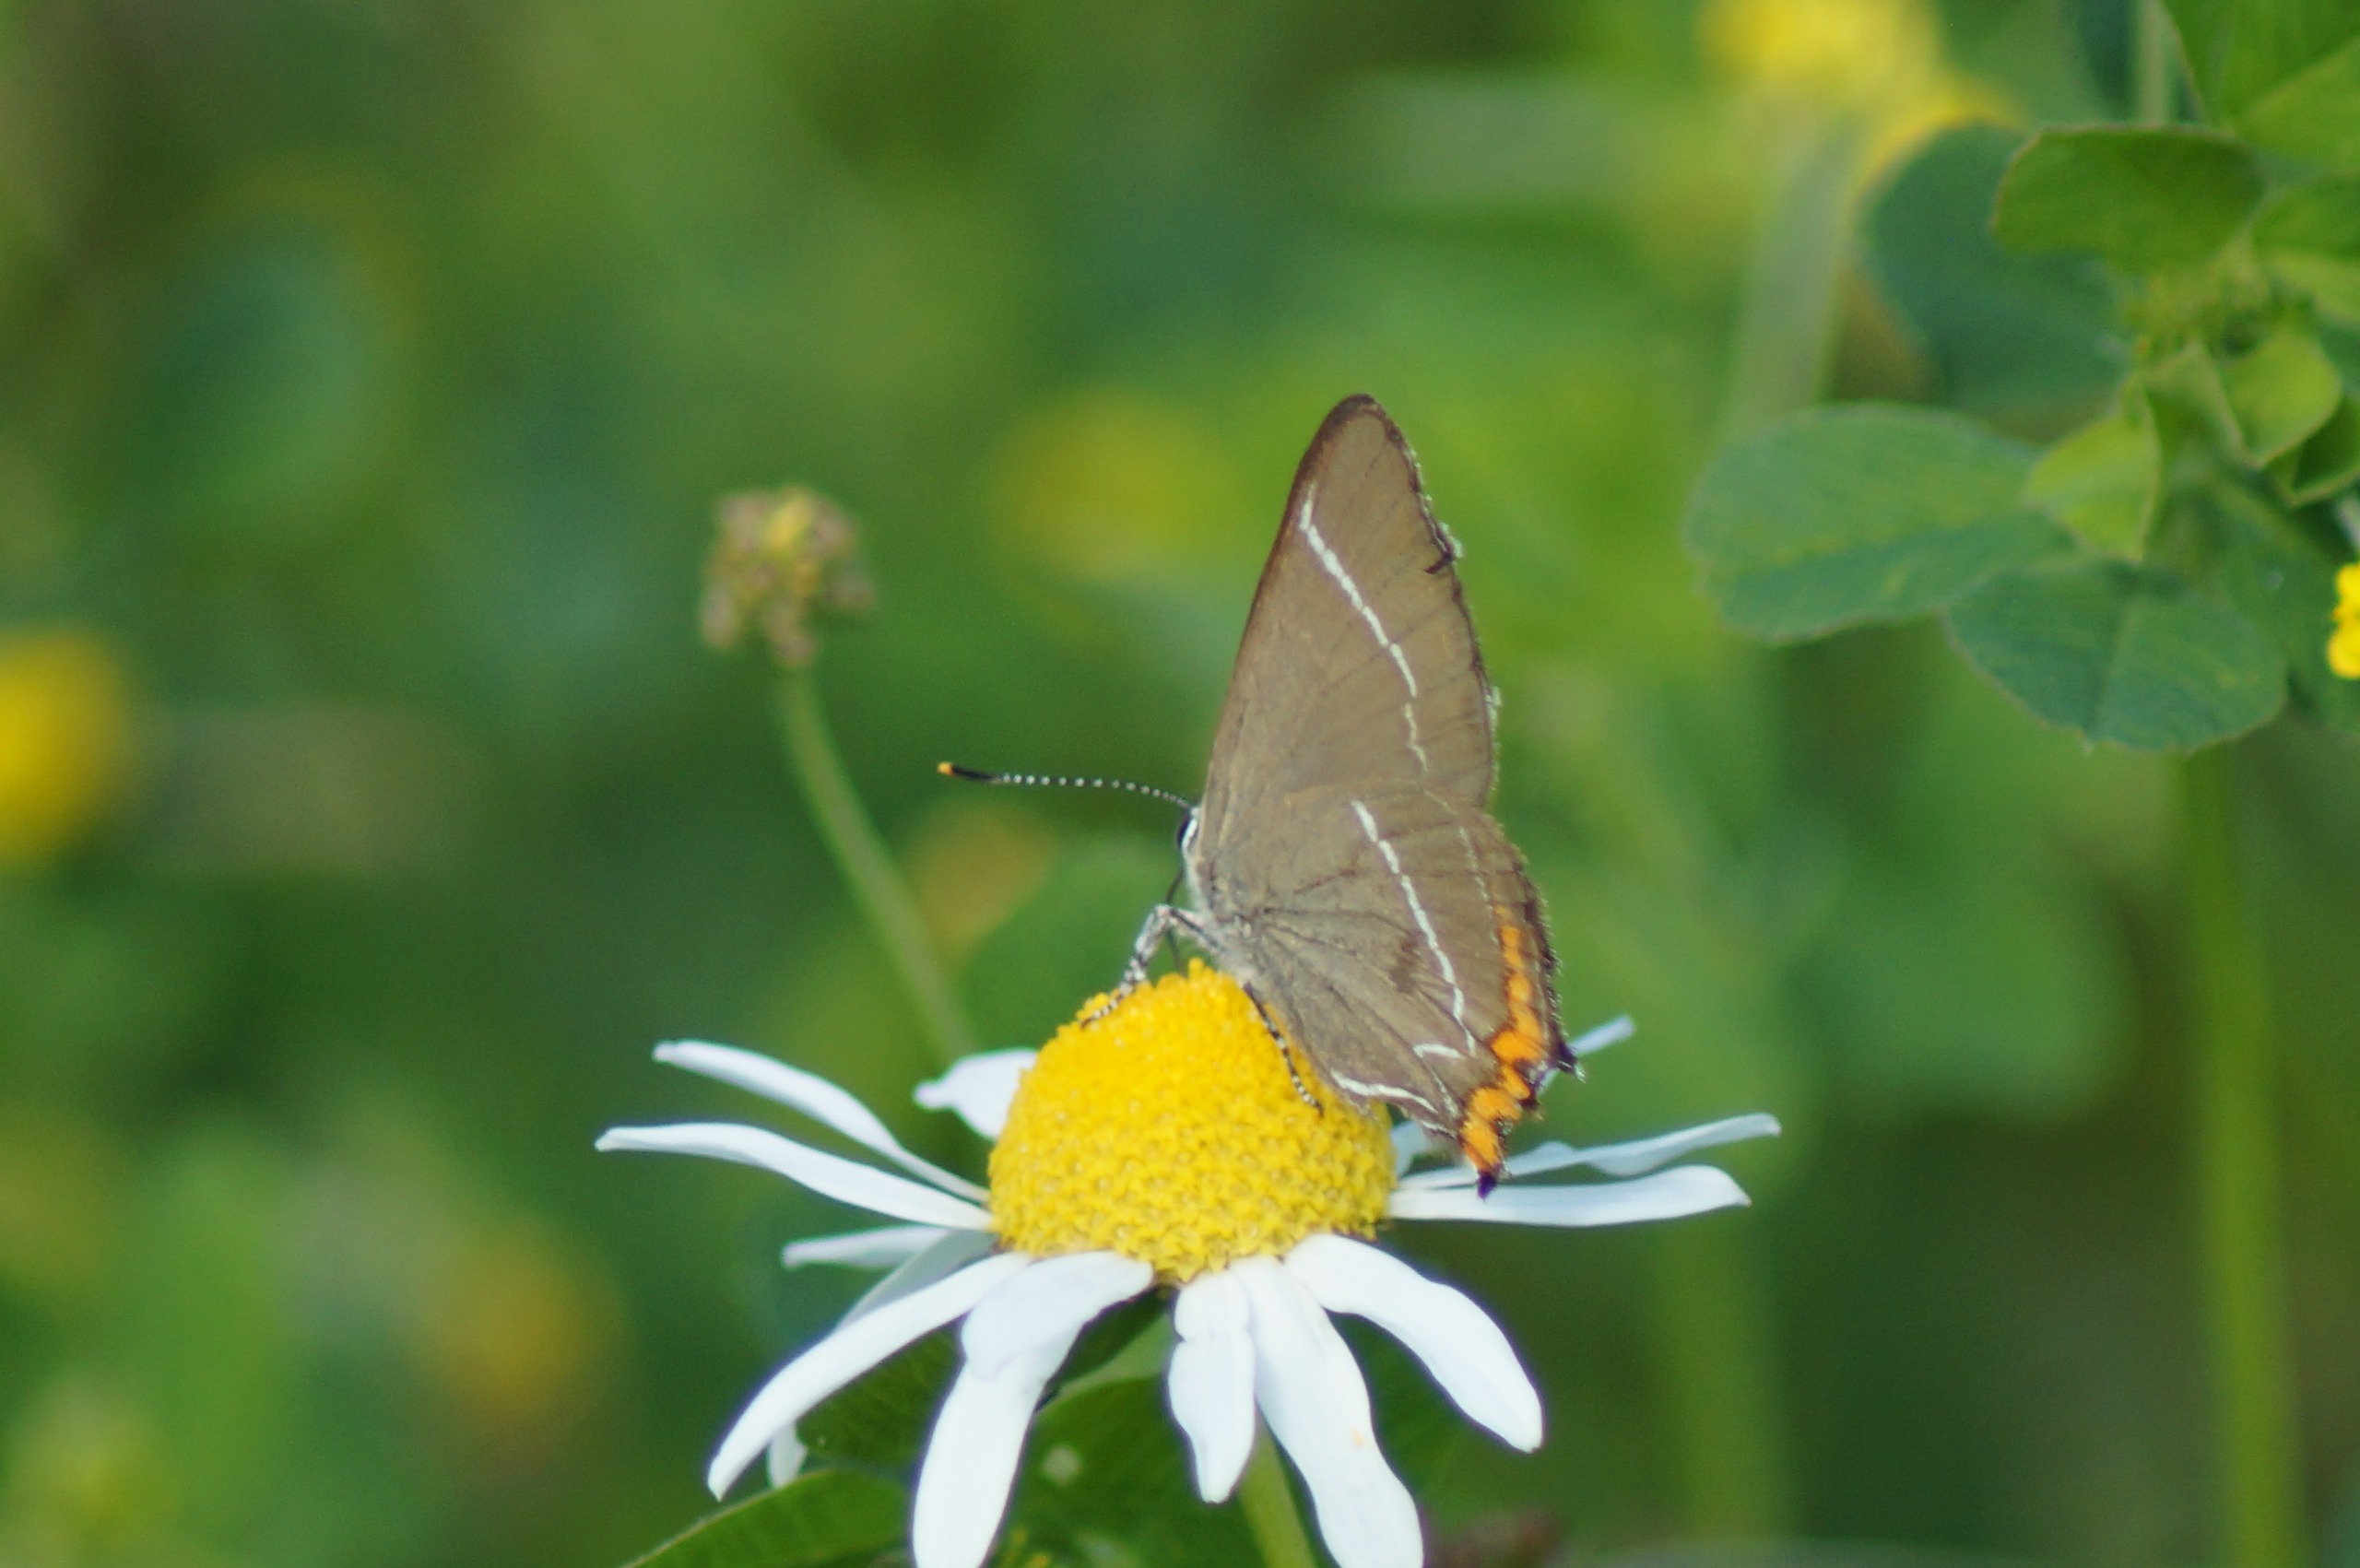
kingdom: Animalia
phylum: Arthropoda
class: Insecta
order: Lepidoptera
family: Lycaenidae
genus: Satyrium
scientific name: Satyrium w-album
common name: Det hvide W
